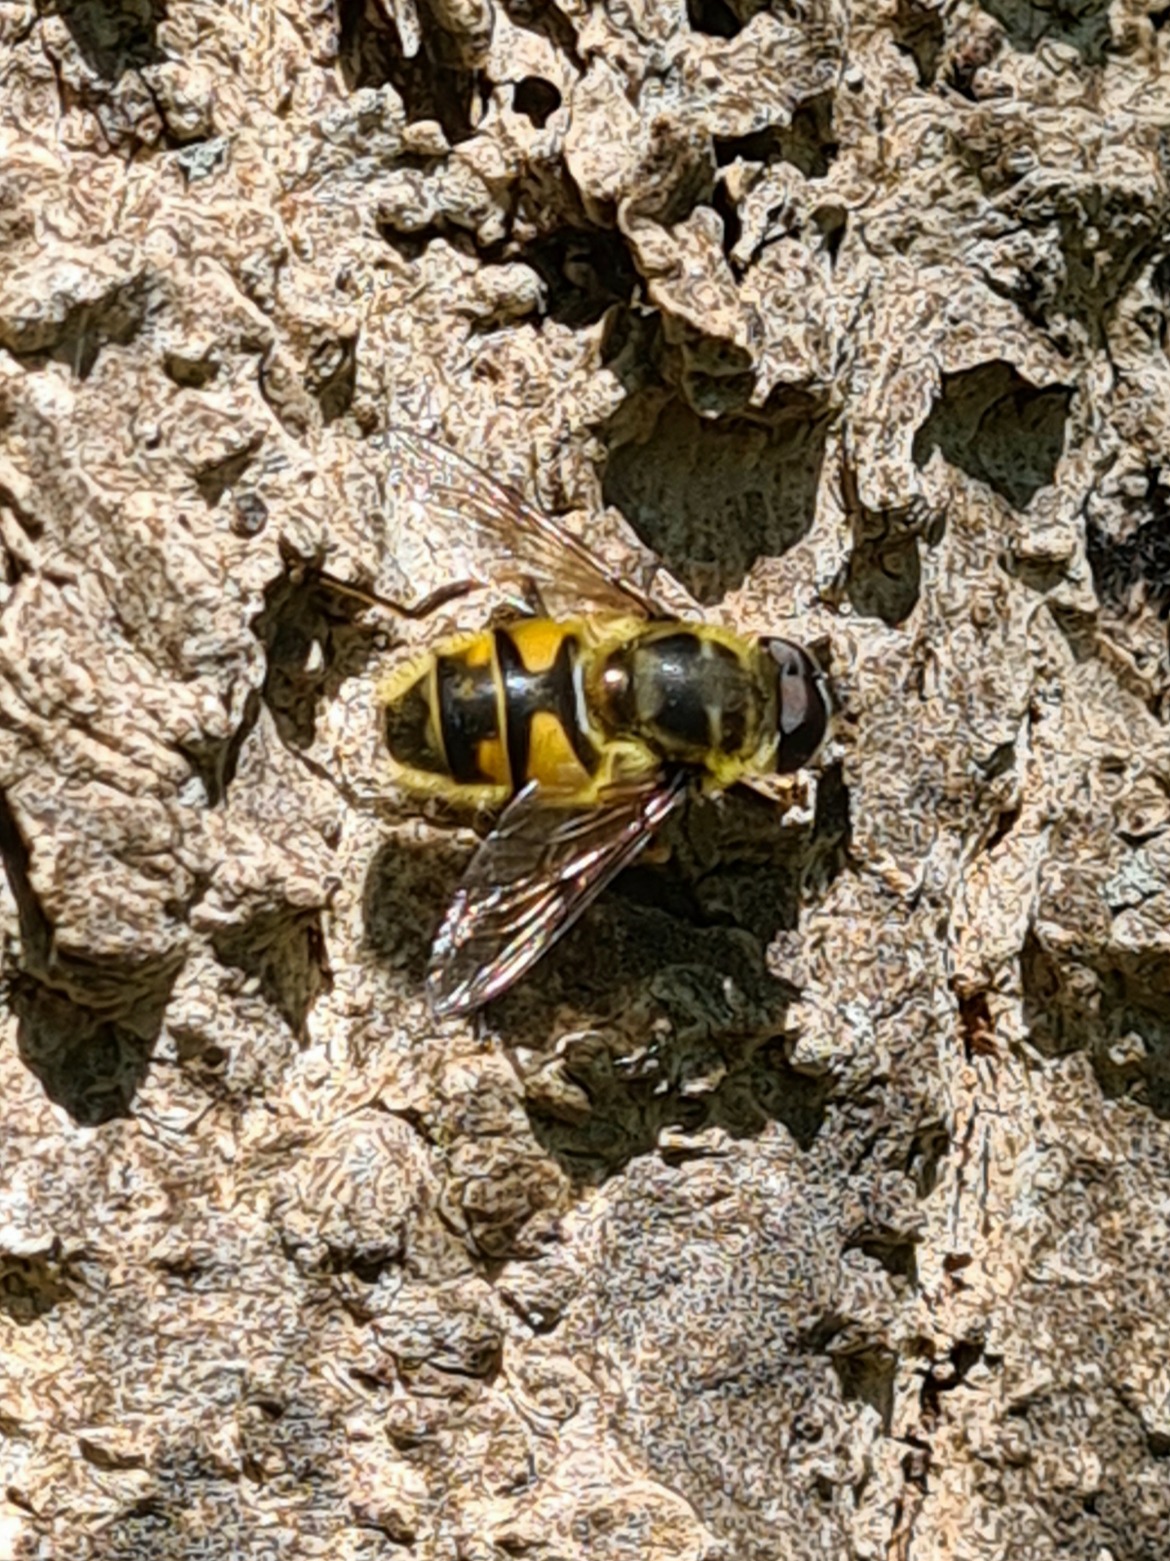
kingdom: Animalia
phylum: Arthropoda
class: Insecta
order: Diptera
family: Syrphidae
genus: Myathropa
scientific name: Myathropa florea
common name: Dødningehoved-svirreflue
